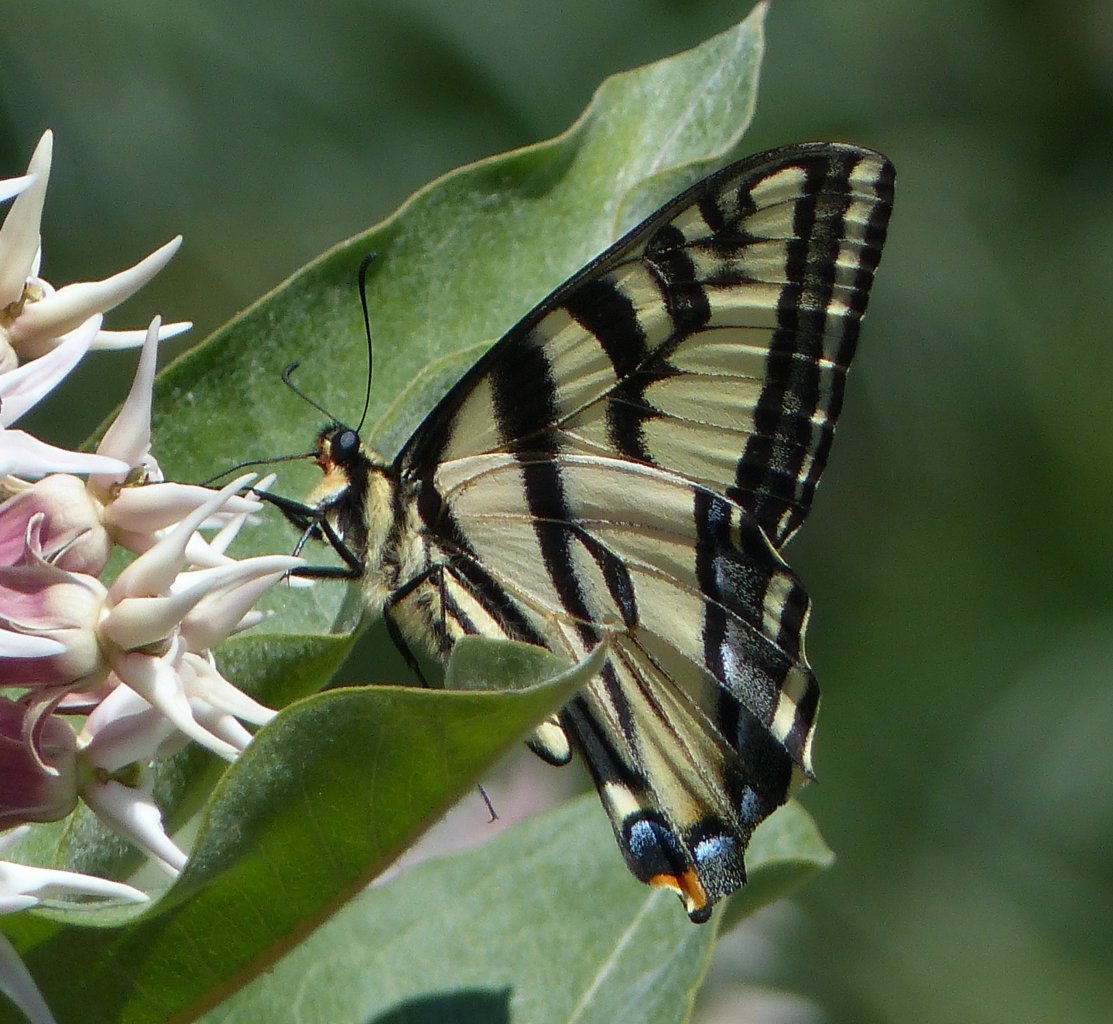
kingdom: Animalia
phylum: Arthropoda
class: Insecta
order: Lepidoptera
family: Papilionidae
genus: Pterourus
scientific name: Pterourus rutulus
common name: Western Tiger Swallowtail
